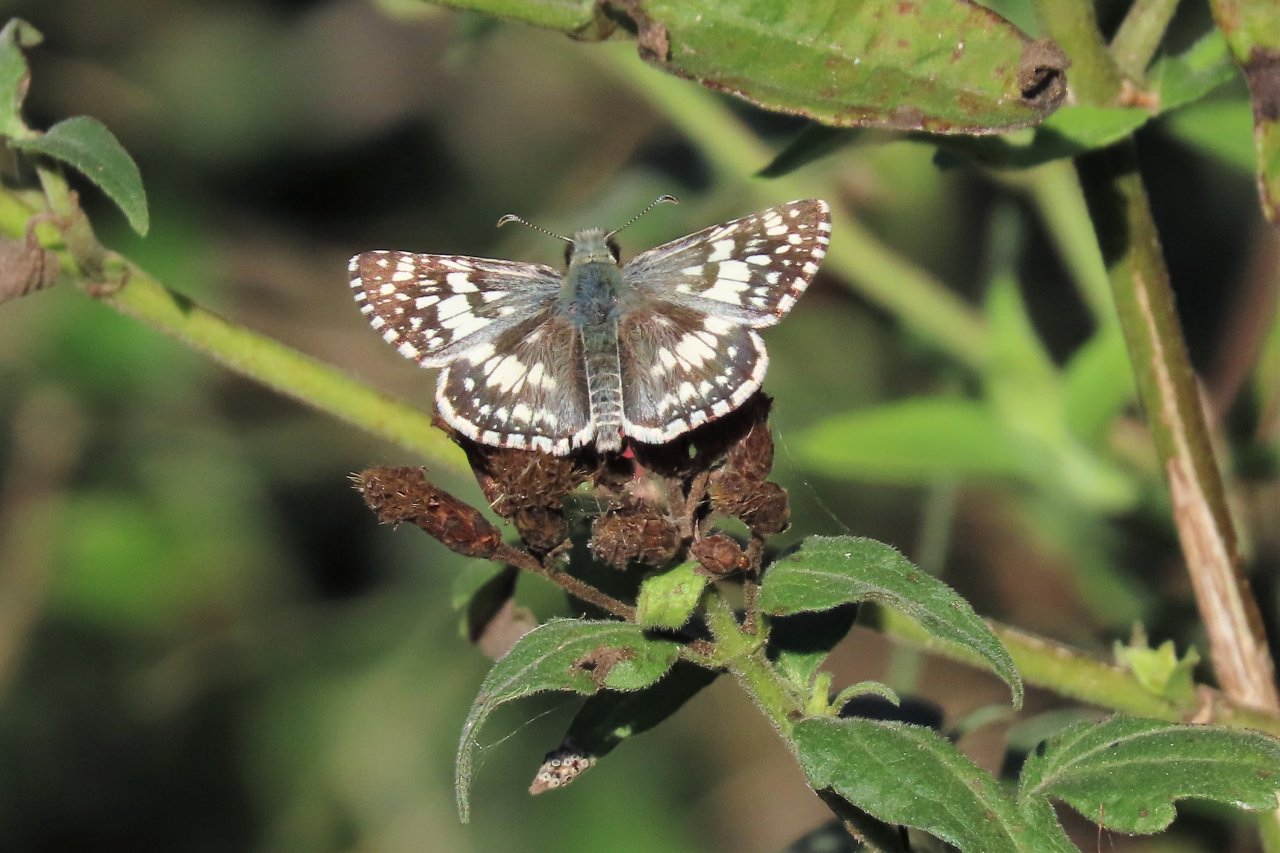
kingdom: Animalia
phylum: Arthropoda
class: Insecta
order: Lepidoptera
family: Hesperiidae
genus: Pyrgus
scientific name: Pyrgus communis
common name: White Checkered-Skipper
